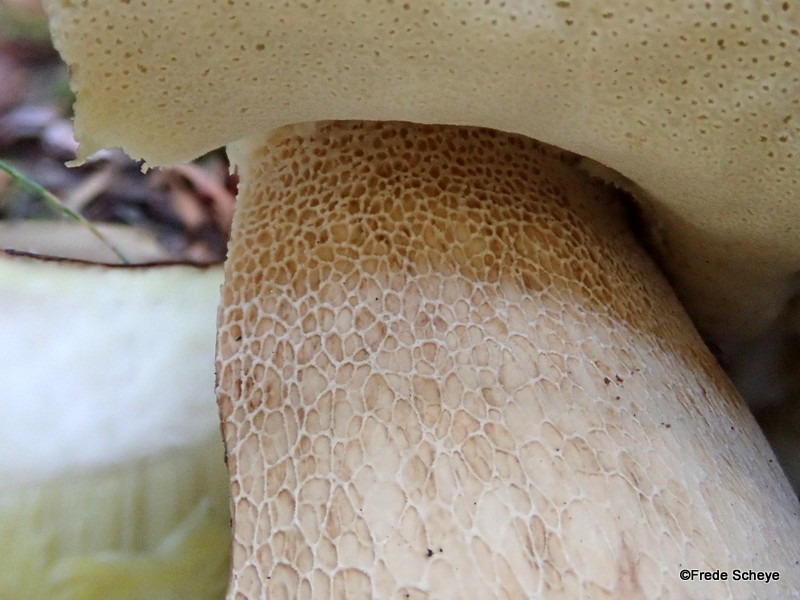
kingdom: Fungi
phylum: Basidiomycota
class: Agaricomycetes
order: Boletales
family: Boletaceae
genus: Boletus
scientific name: Boletus reticulatus
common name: sommer-rørhat
